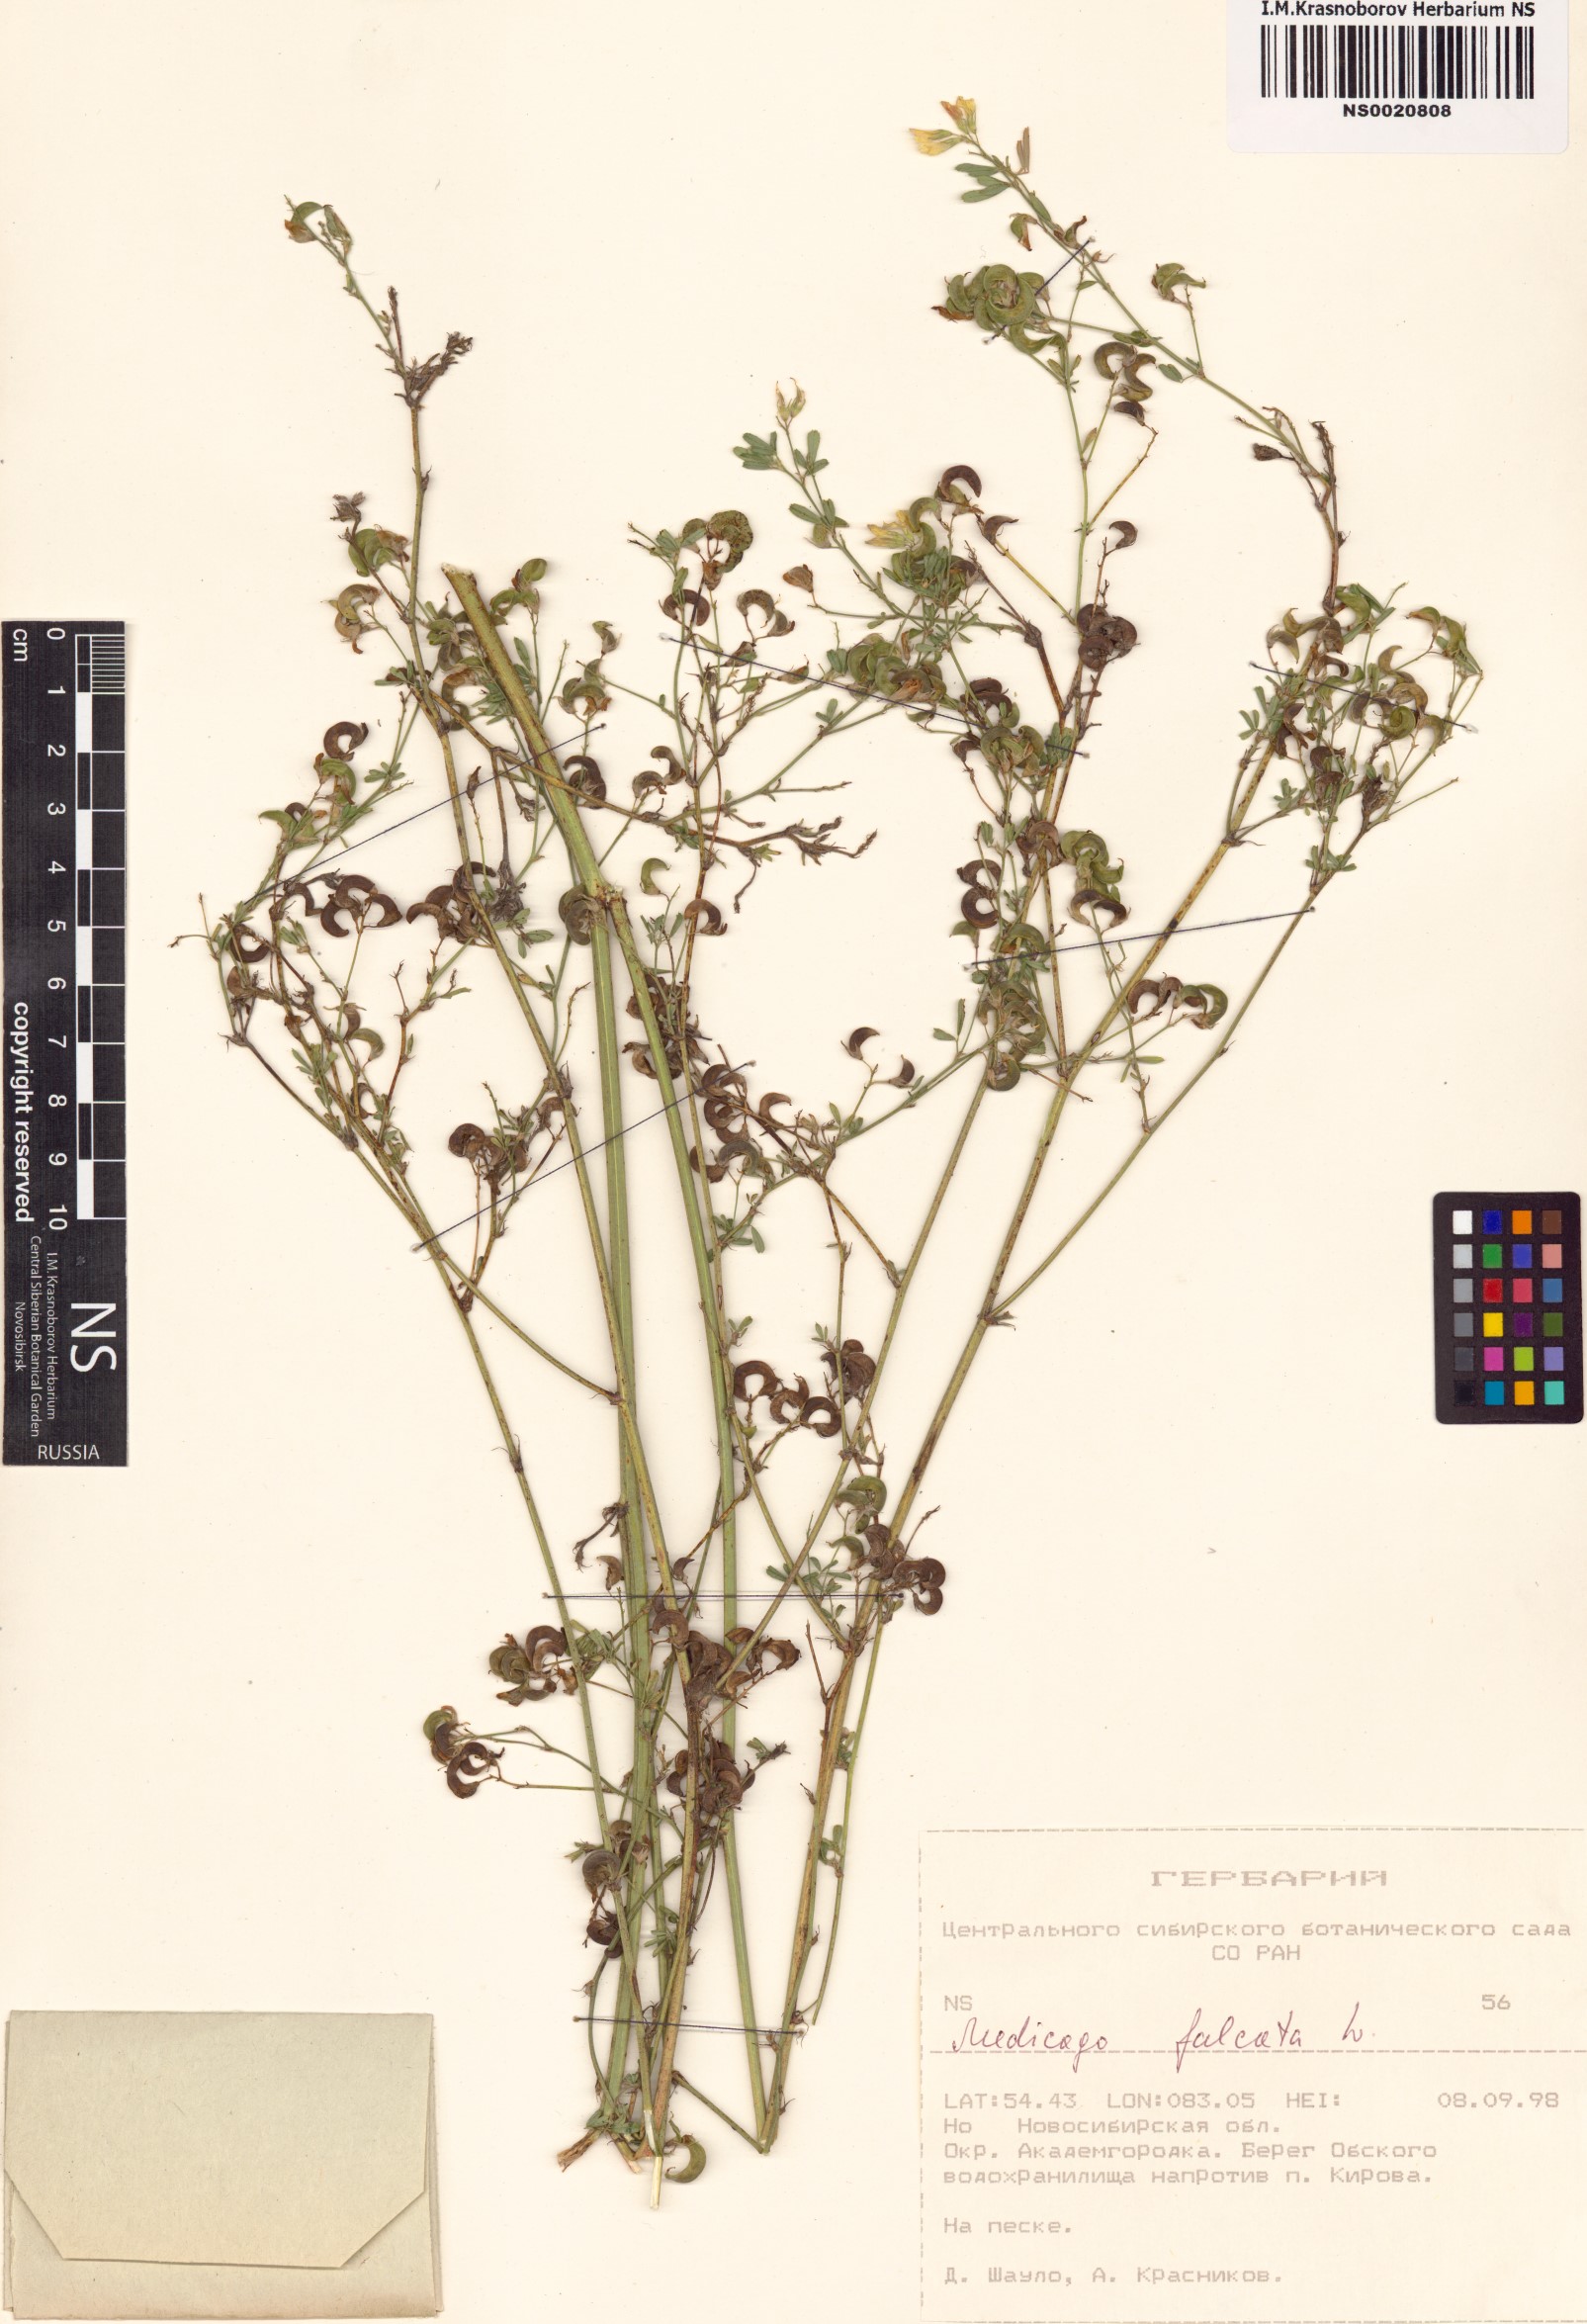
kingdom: Plantae
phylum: Tracheophyta
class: Magnoliopsida
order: Fabales
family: Fabaceae
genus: Medicago
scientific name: Medicago falcata
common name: Sickle medick
